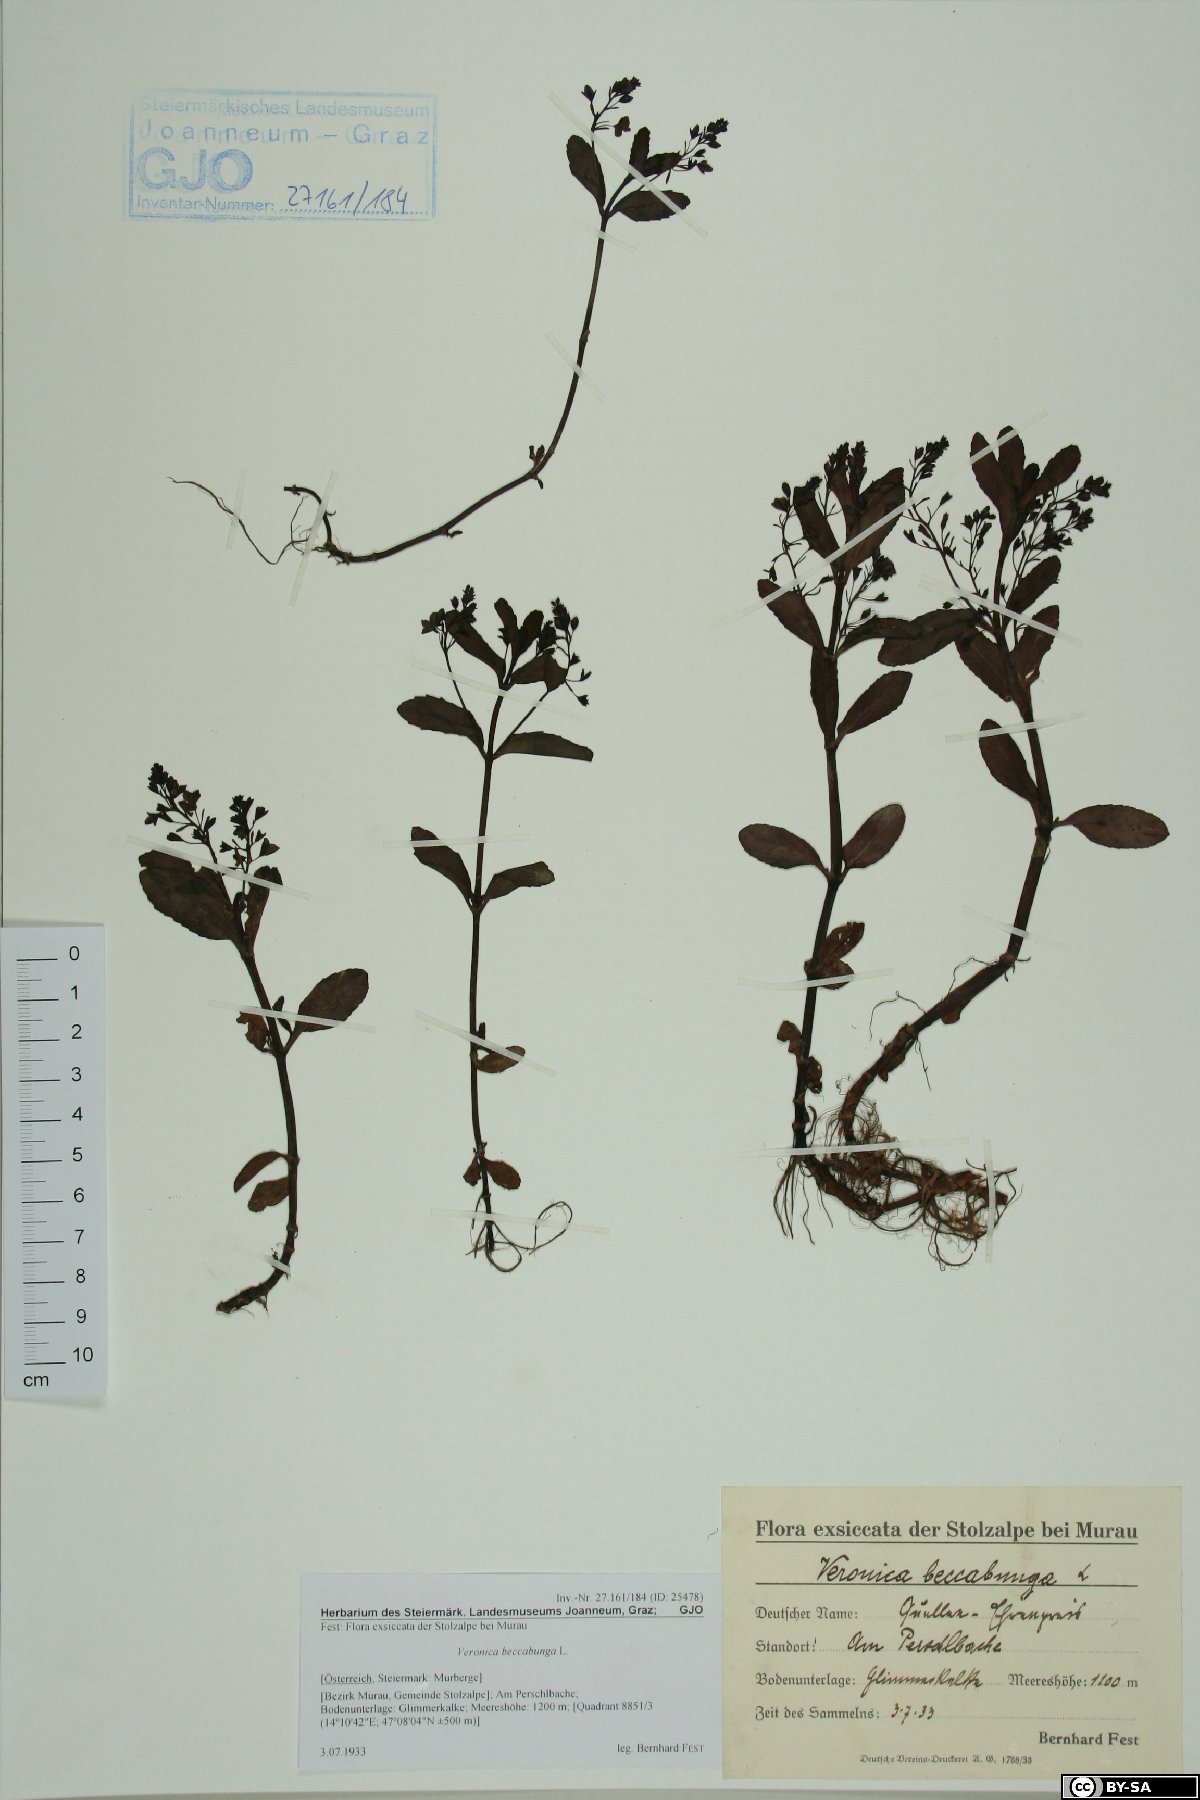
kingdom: Plantae
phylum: Tracheophyta
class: Magnoliopsida
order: Lamiales
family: Plantaginaceae
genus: Veronica
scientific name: Veronica beccabunga
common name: Brooklime
